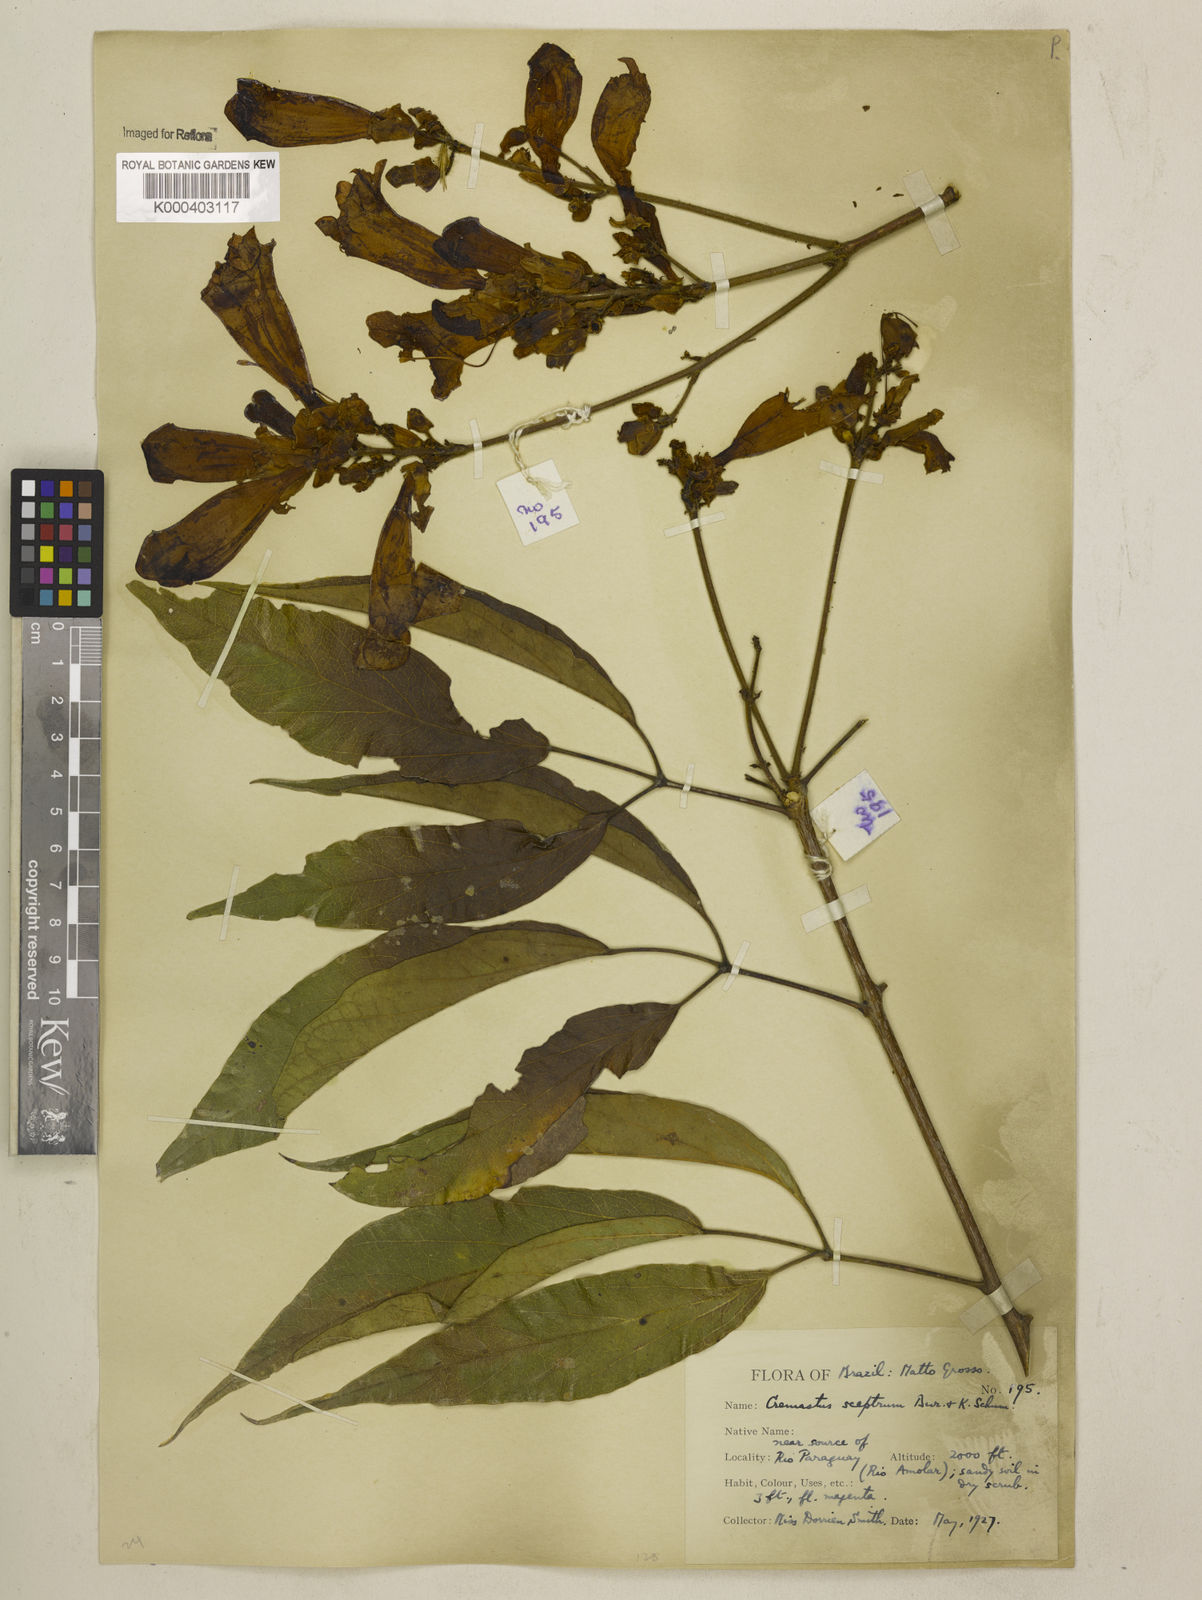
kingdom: Plantae
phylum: Tracheophyta
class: Magnoliopsida
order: Lamiales
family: Bignoniaceae
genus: Cuspidaria
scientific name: Cuspidaria sceptrum
